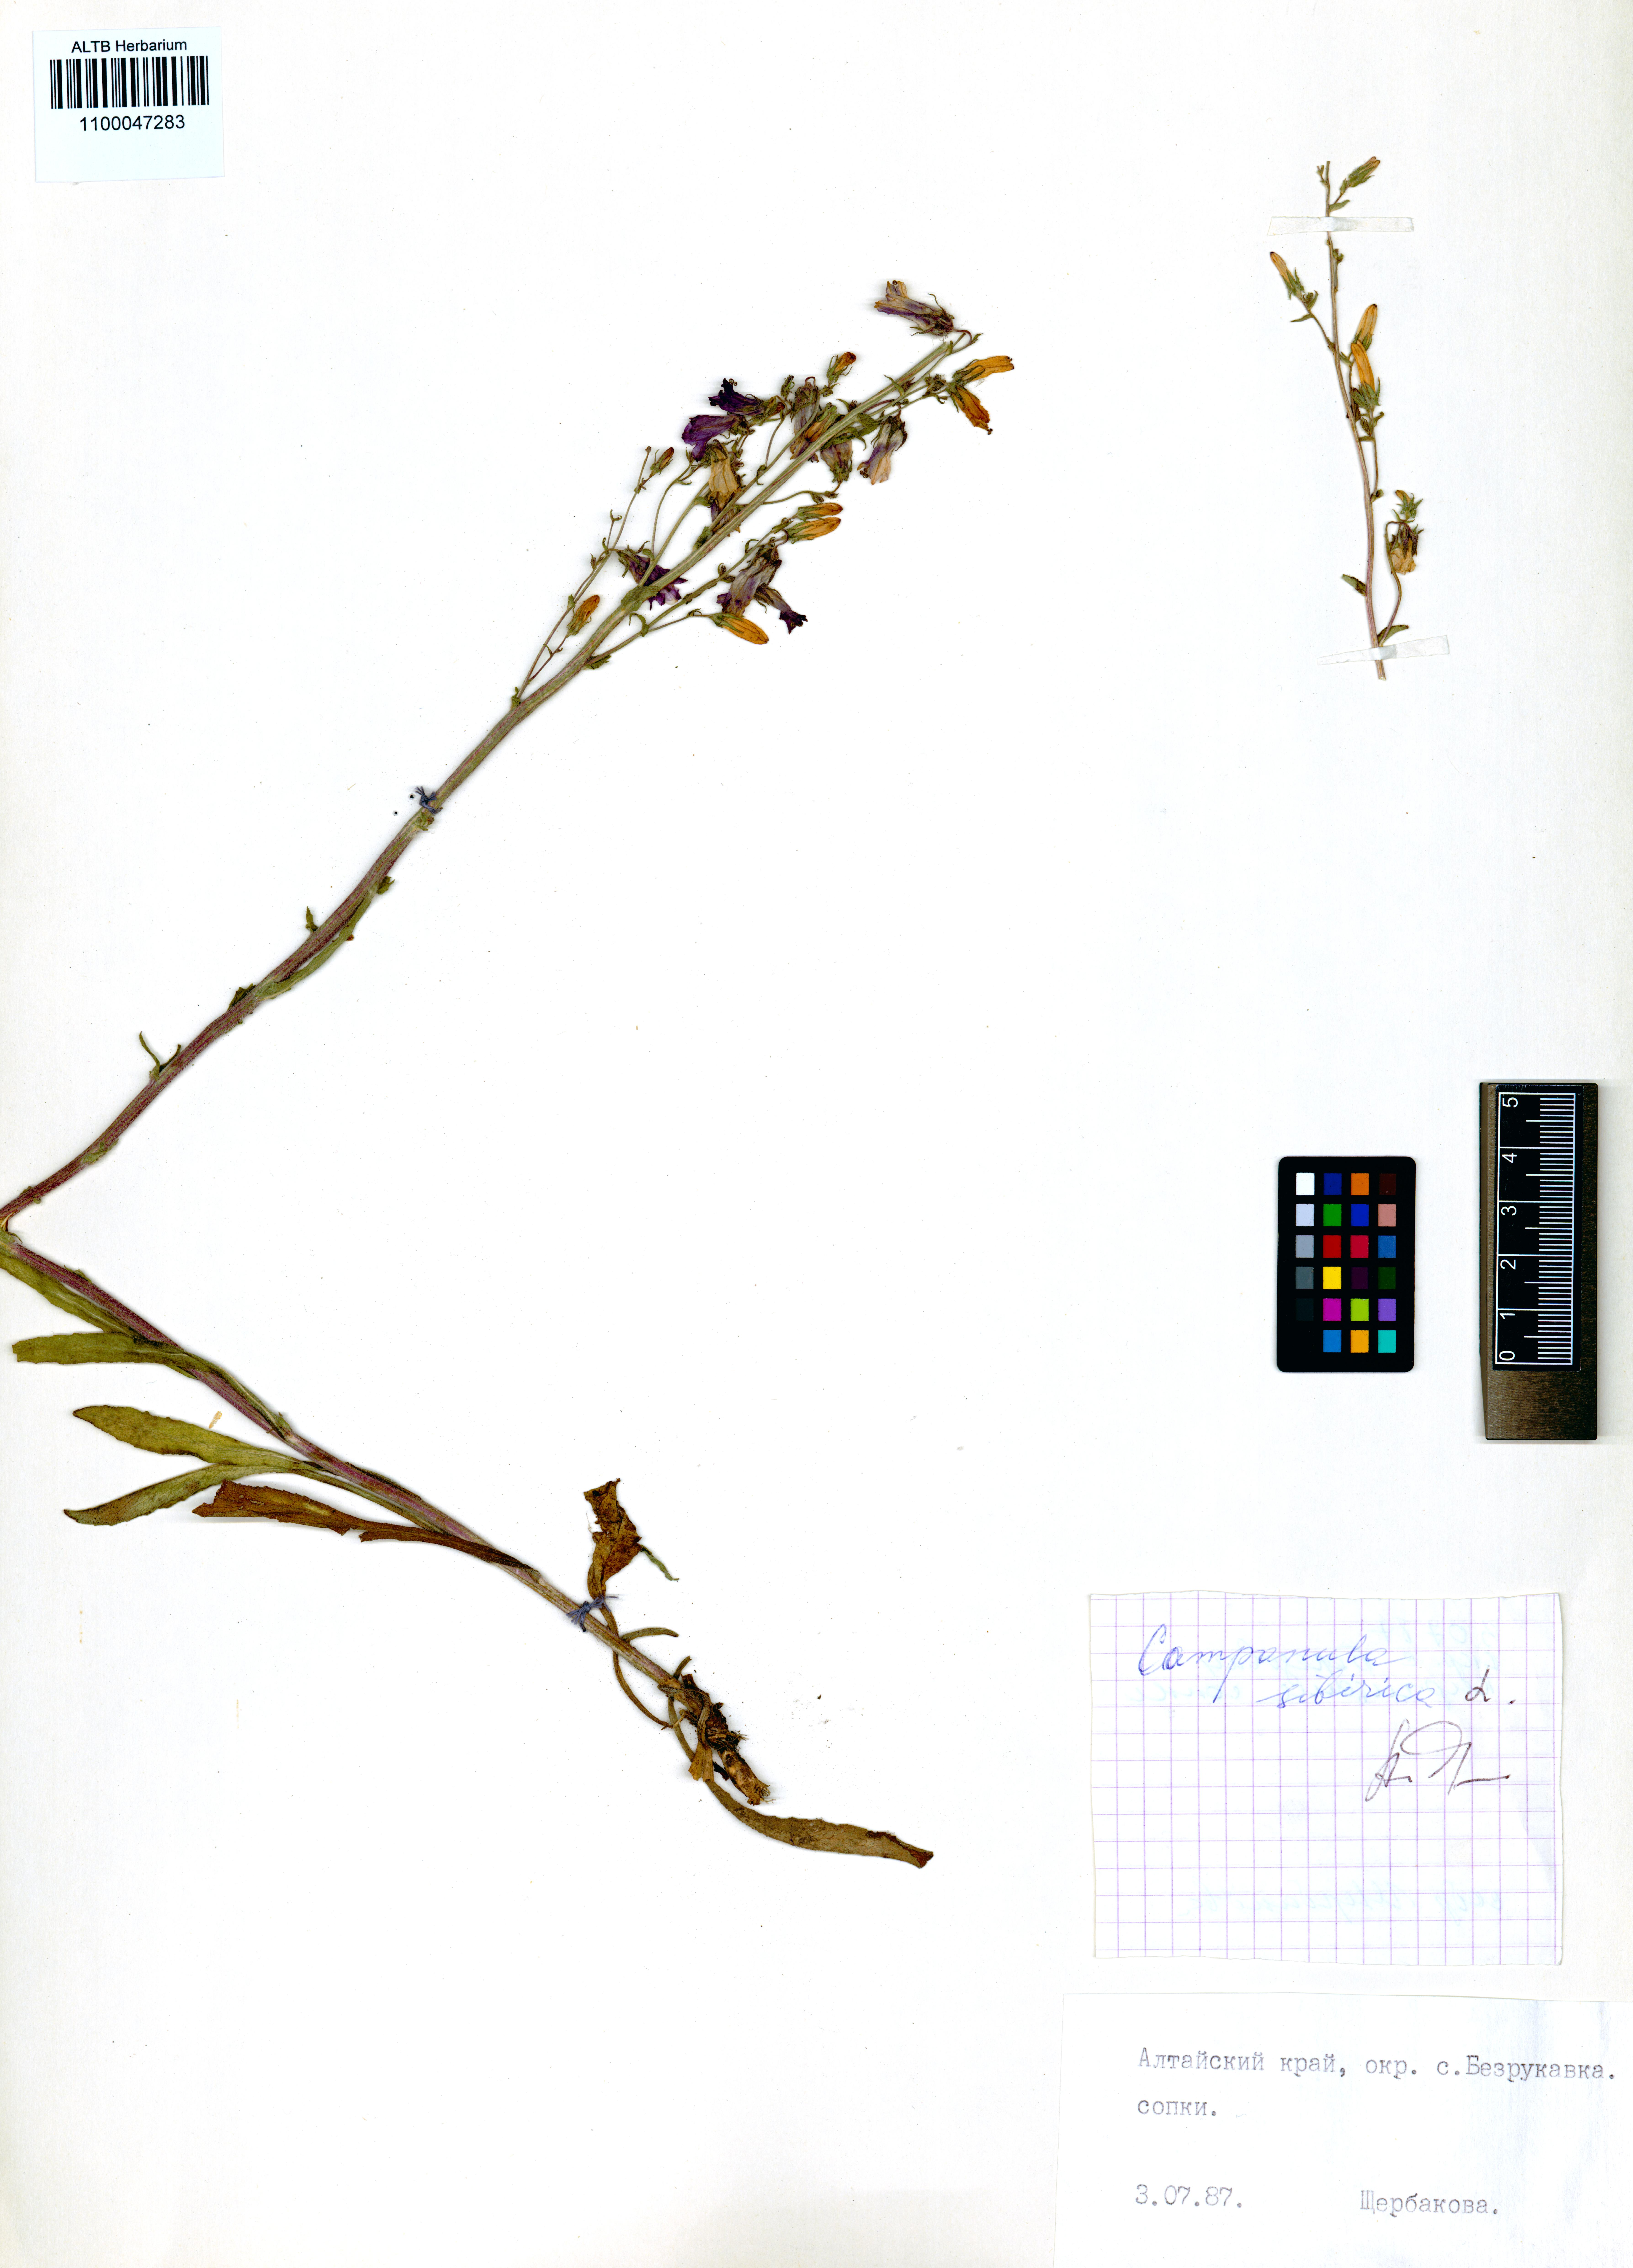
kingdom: Plantae
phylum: Tracheophyta
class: Magnoliopsida
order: Asterales
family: Campanulaceae
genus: Campanula
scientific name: Campanula sibirica
